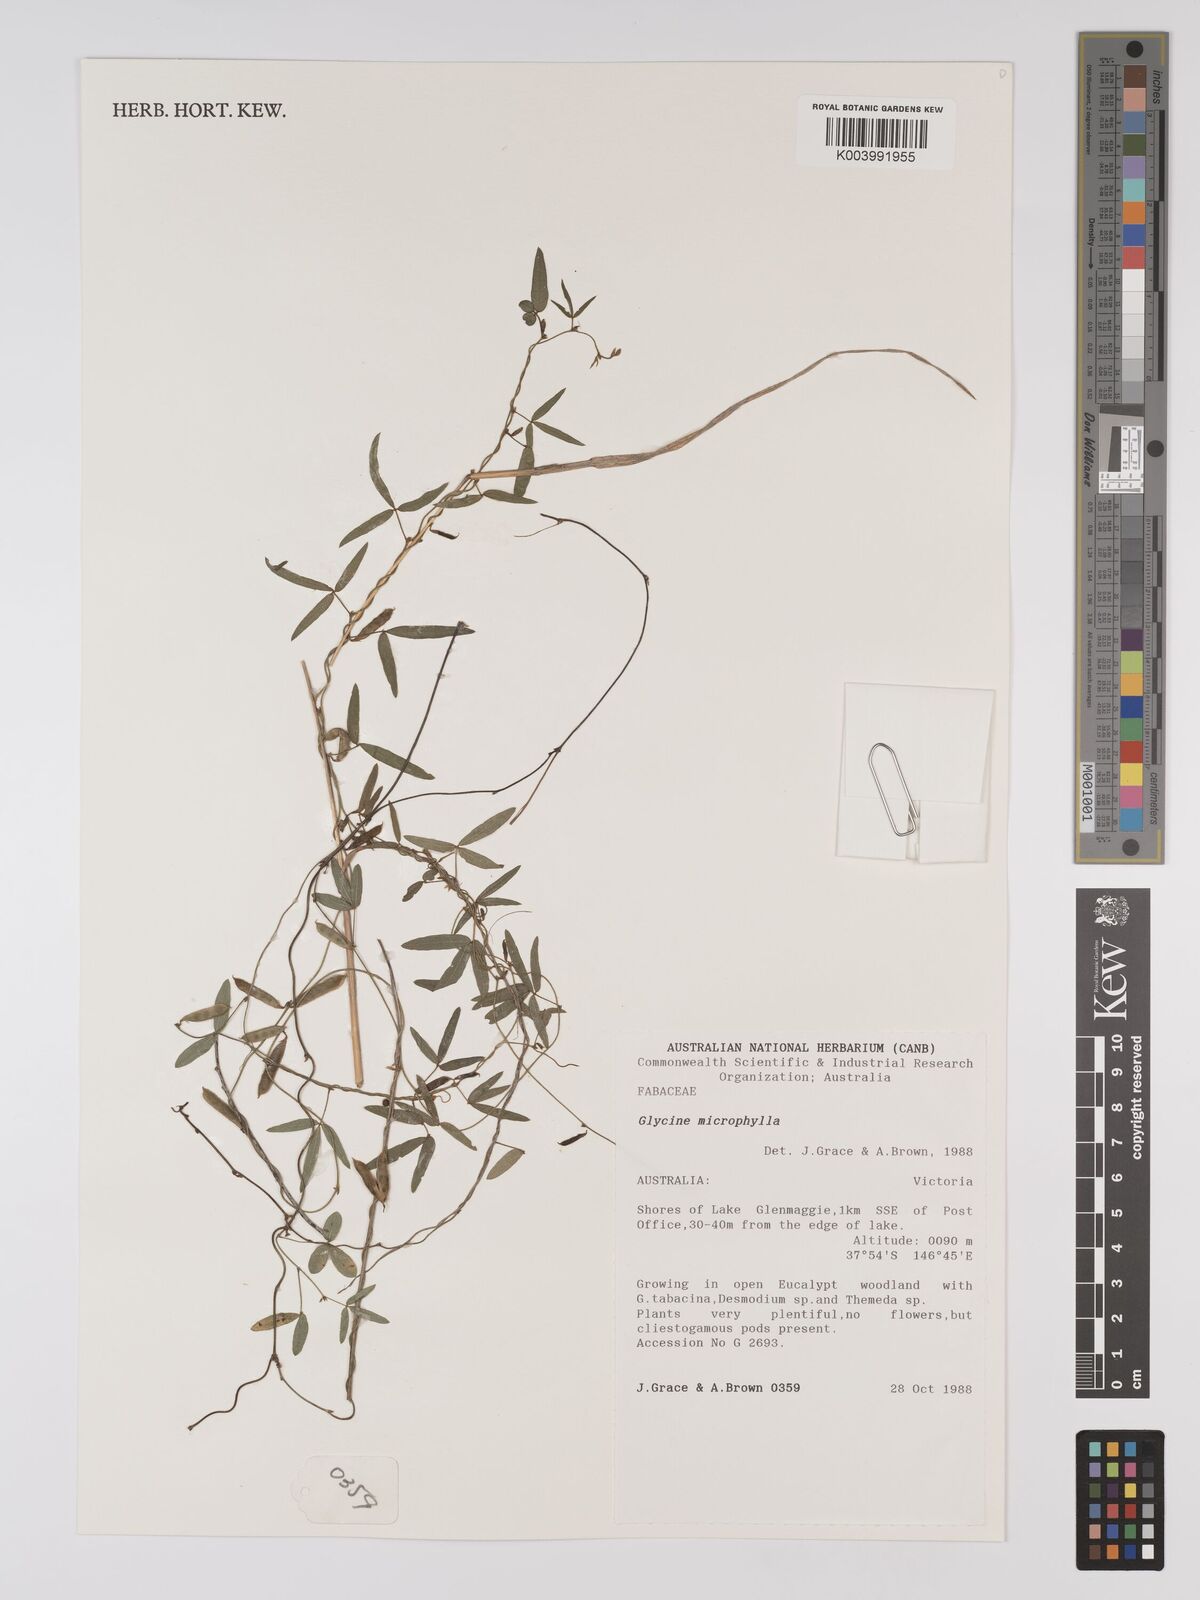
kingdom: Plantae
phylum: Tracheophyta
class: Magnoliopsida
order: Fabales
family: Fabaceae
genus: Glycine
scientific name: Glycine microphylla
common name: Small-leaf glycine
